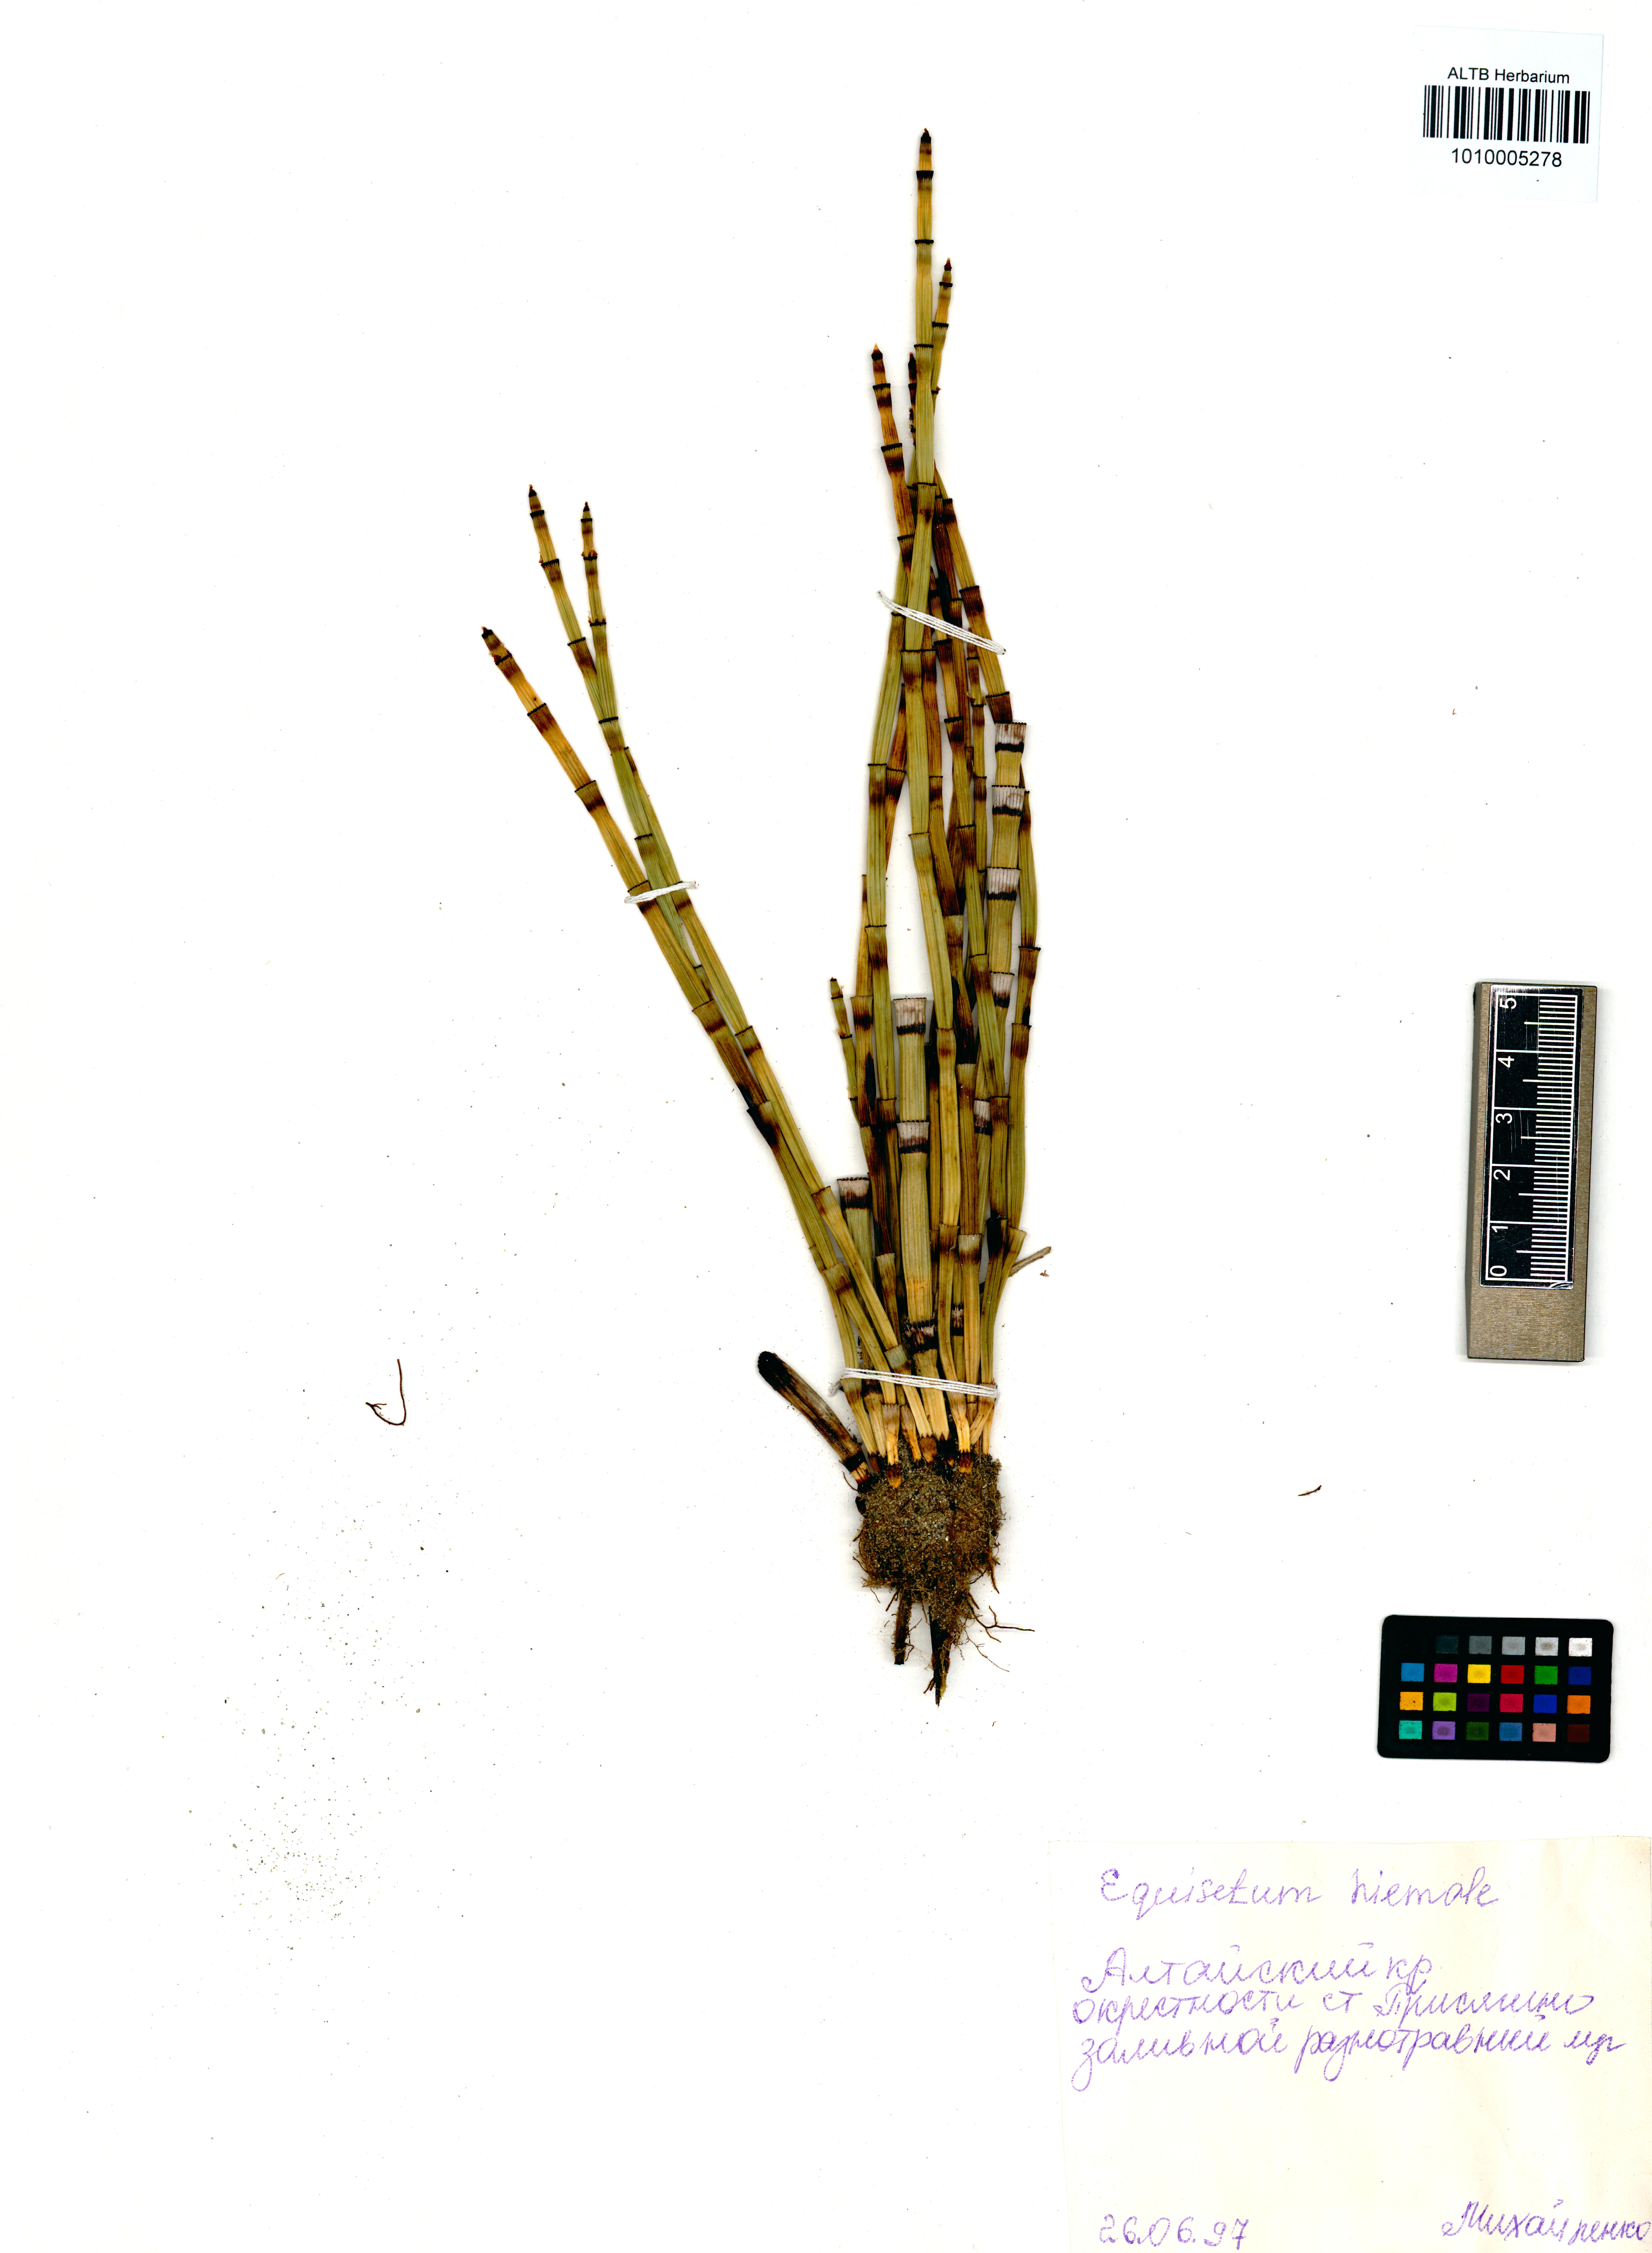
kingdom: Plantae
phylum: Tracheophyta
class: Polypodiopsida
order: Equisetales
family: Equisetaceae
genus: Equisetum
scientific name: Equisetum hyemale
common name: Rough horsetail
